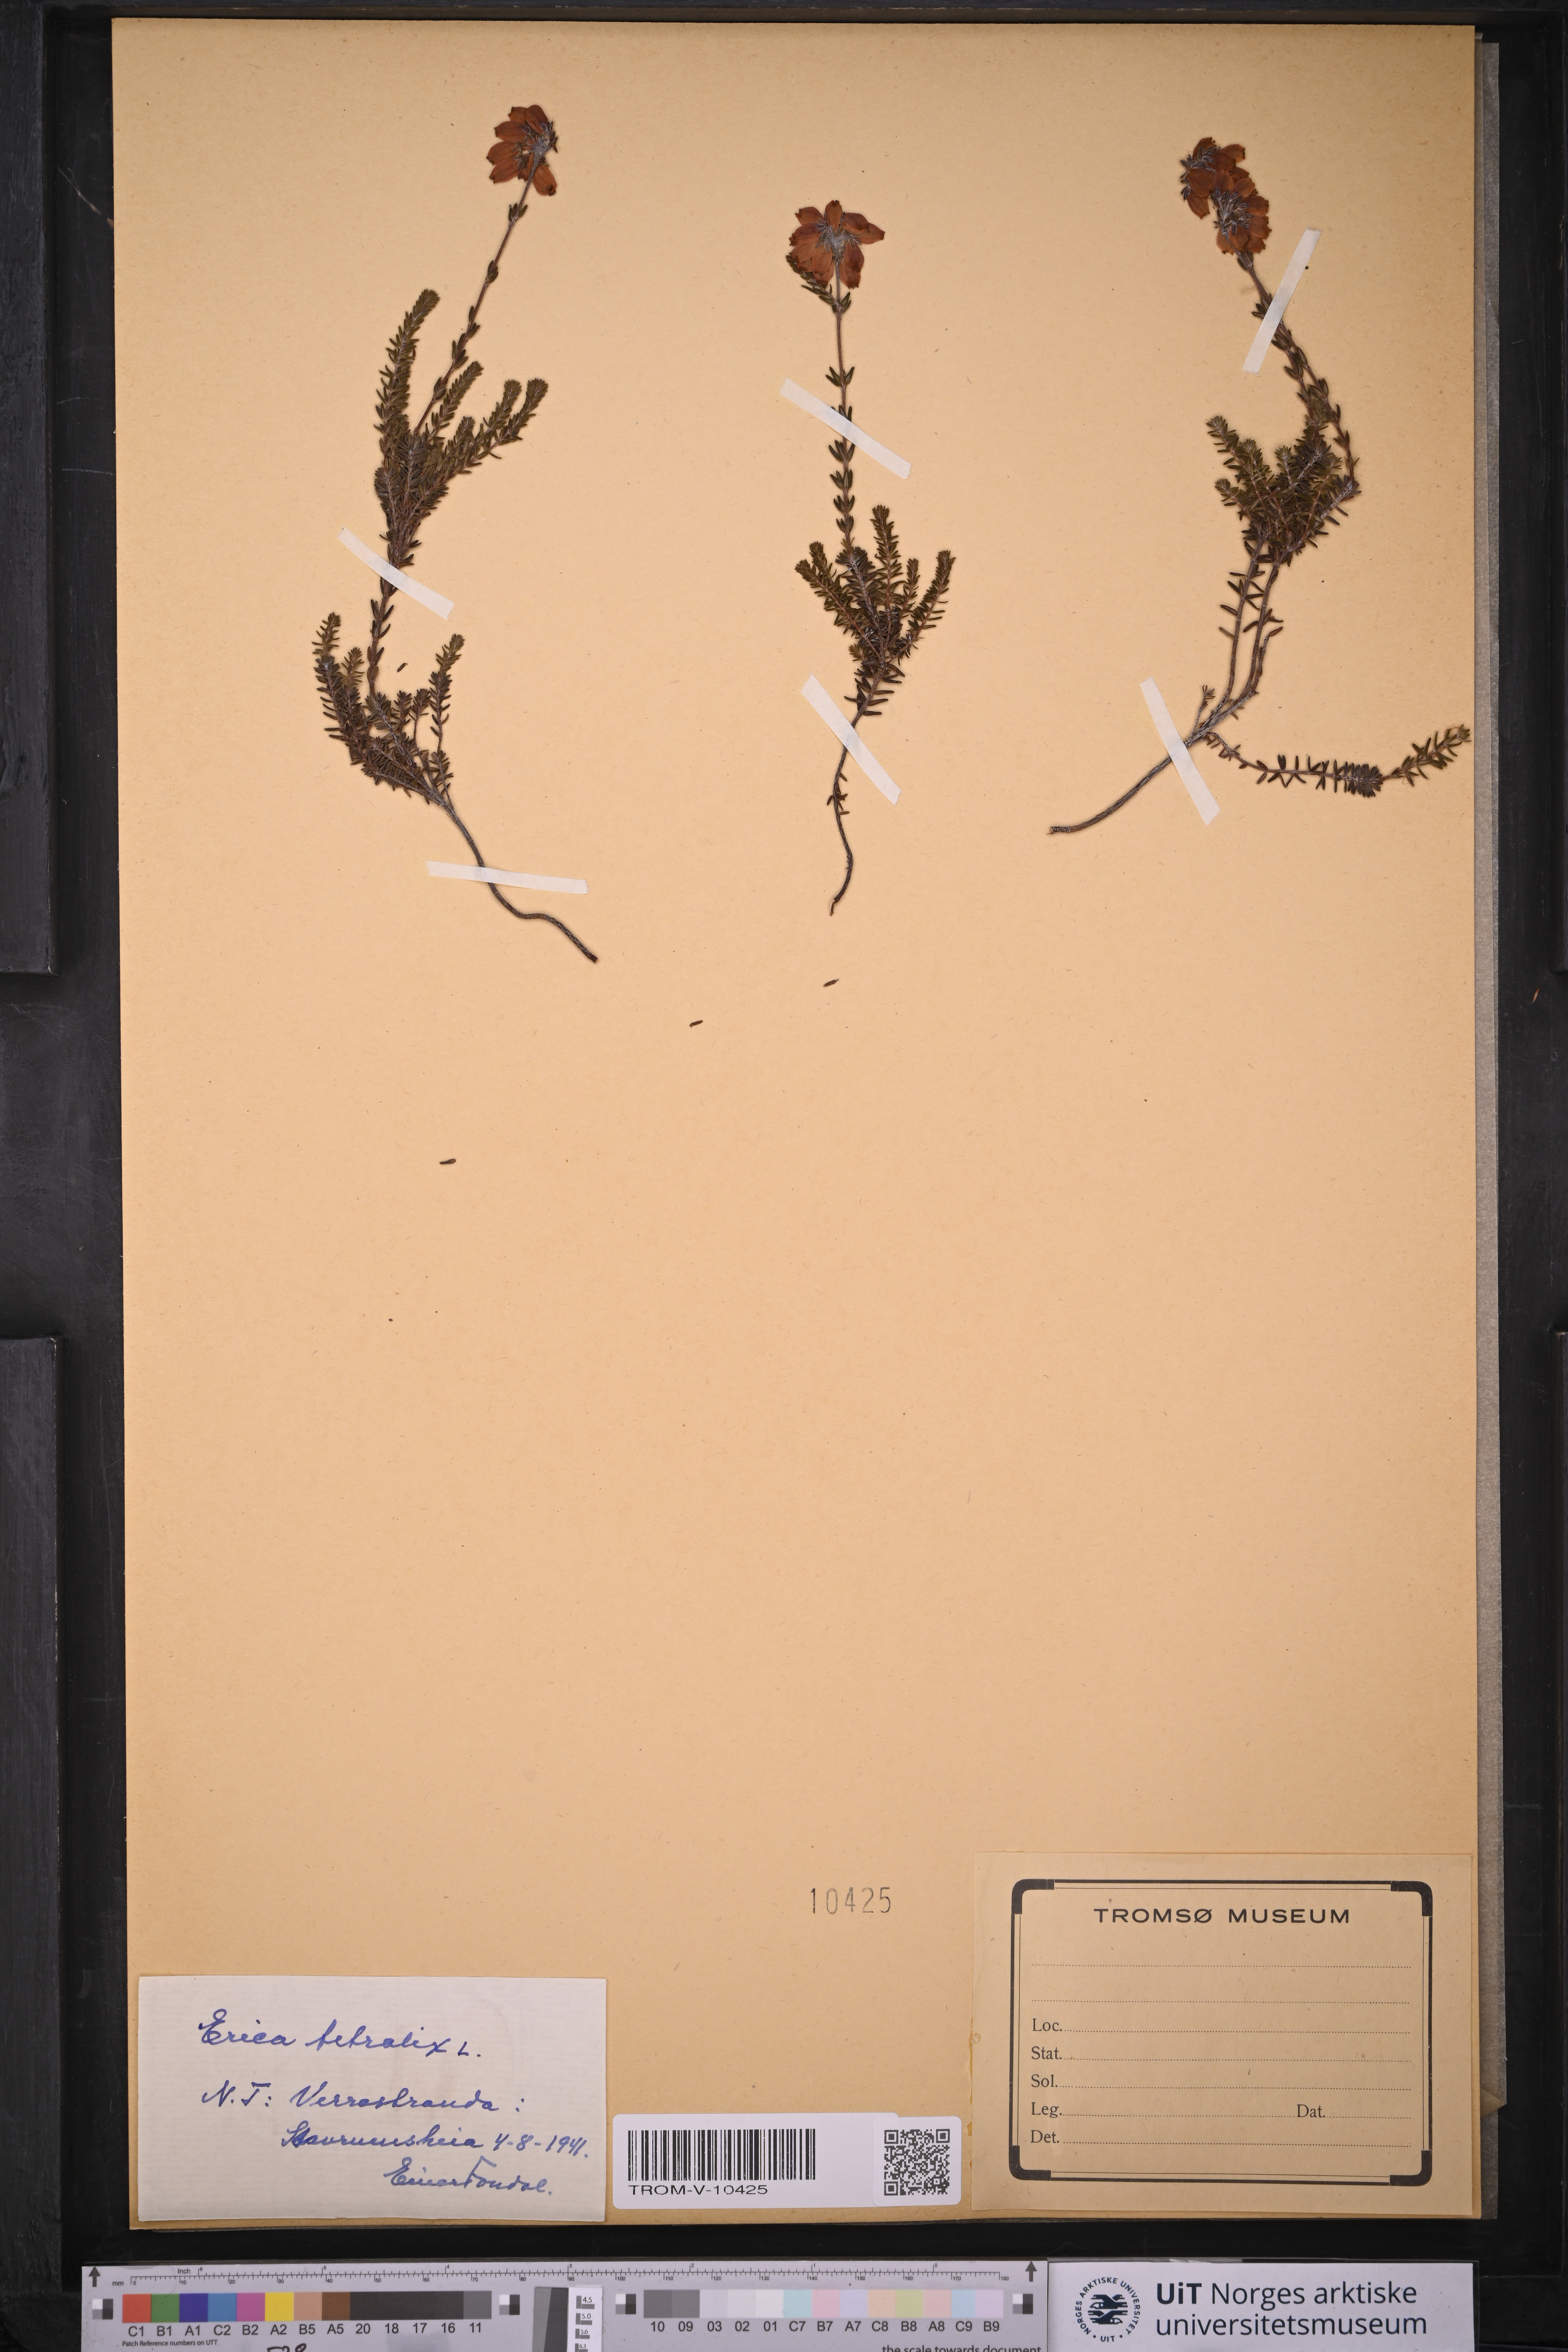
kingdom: Plantae
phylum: Tracheophyta
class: Magnoliopsida
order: Ericales
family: Ericaceae
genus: Erica
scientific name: Erica tetralix
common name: Cross-leaved heath
